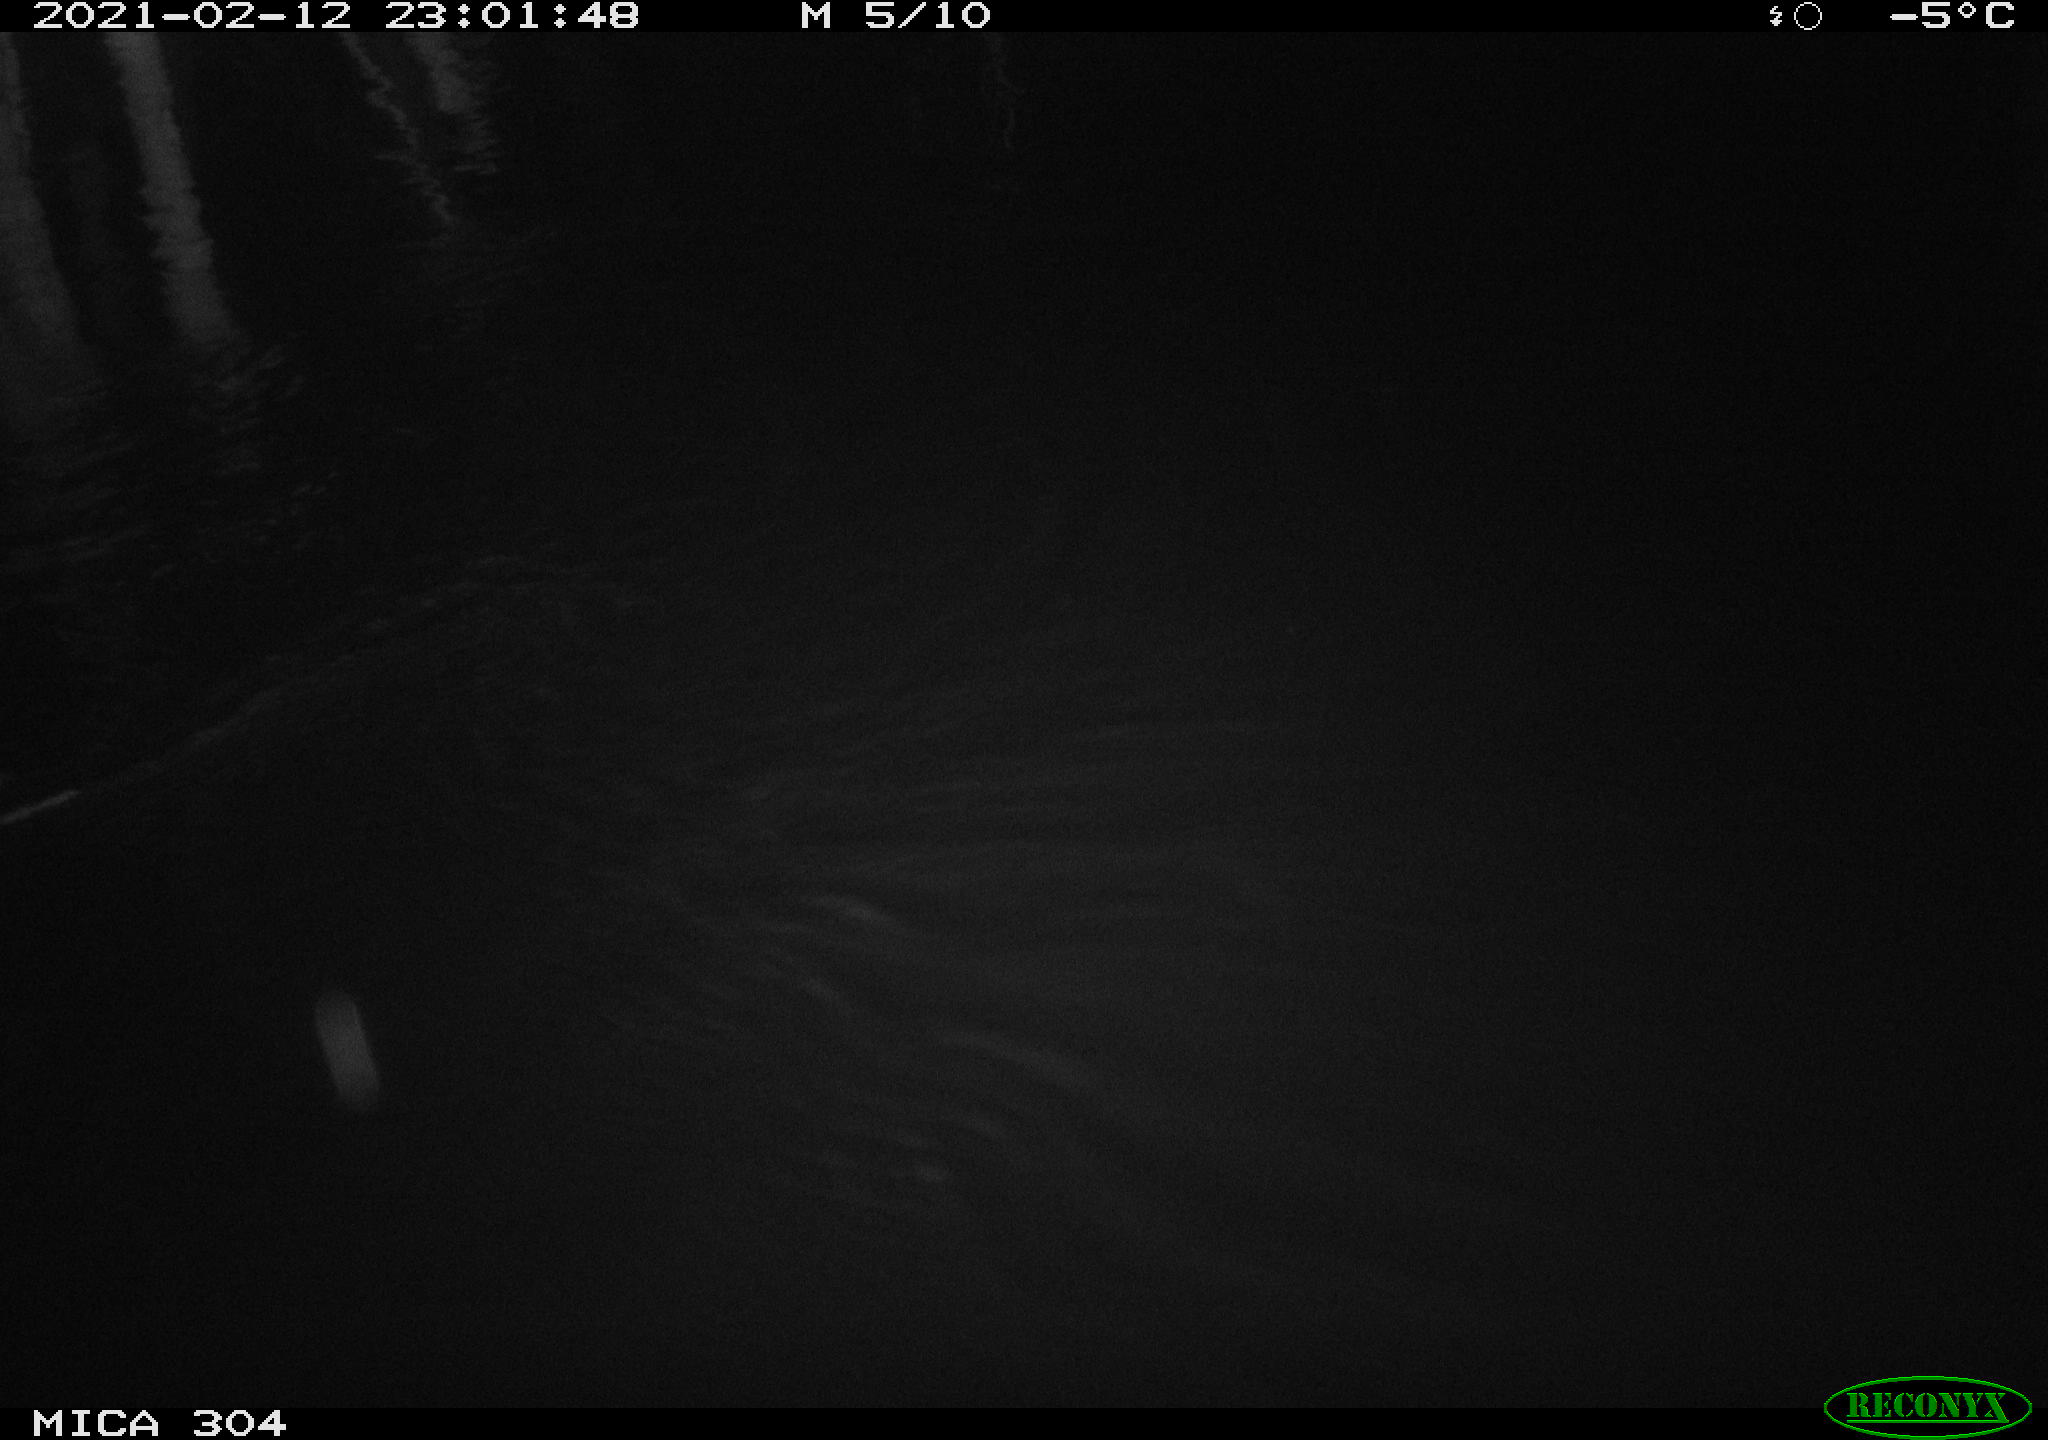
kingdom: Animalia
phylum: Chordata
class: Mammalia
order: Rodentia
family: Muridae
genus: Rattus
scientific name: Rattus norvegicus
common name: Brown rat
